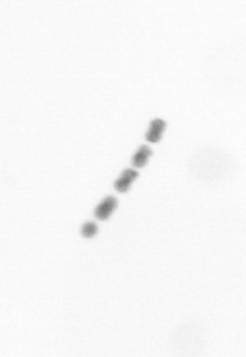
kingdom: Chromista
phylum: Ochrophyta
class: Bacillariophyceae
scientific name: Bacillariophyceae
